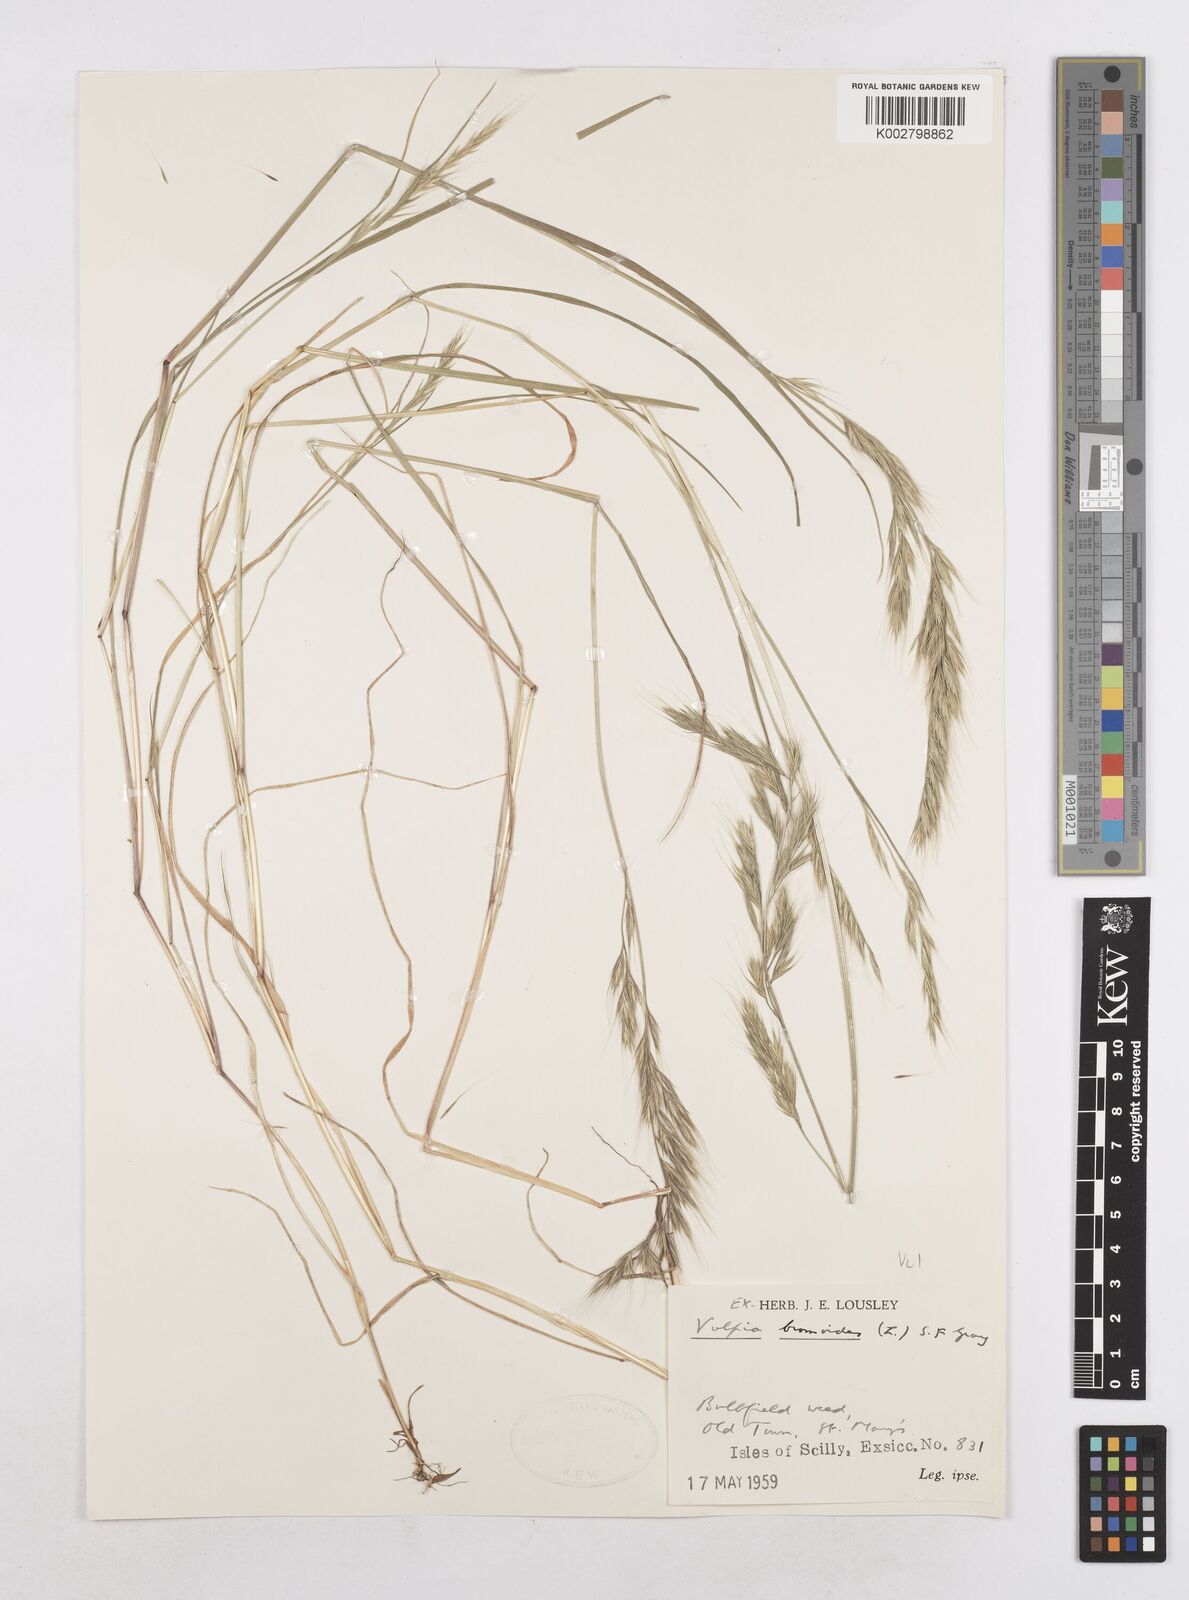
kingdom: Plantae
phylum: Tracheophyta
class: Liliopsida
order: Poales
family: Poaceae
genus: Festuca
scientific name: Festuca bromoides
